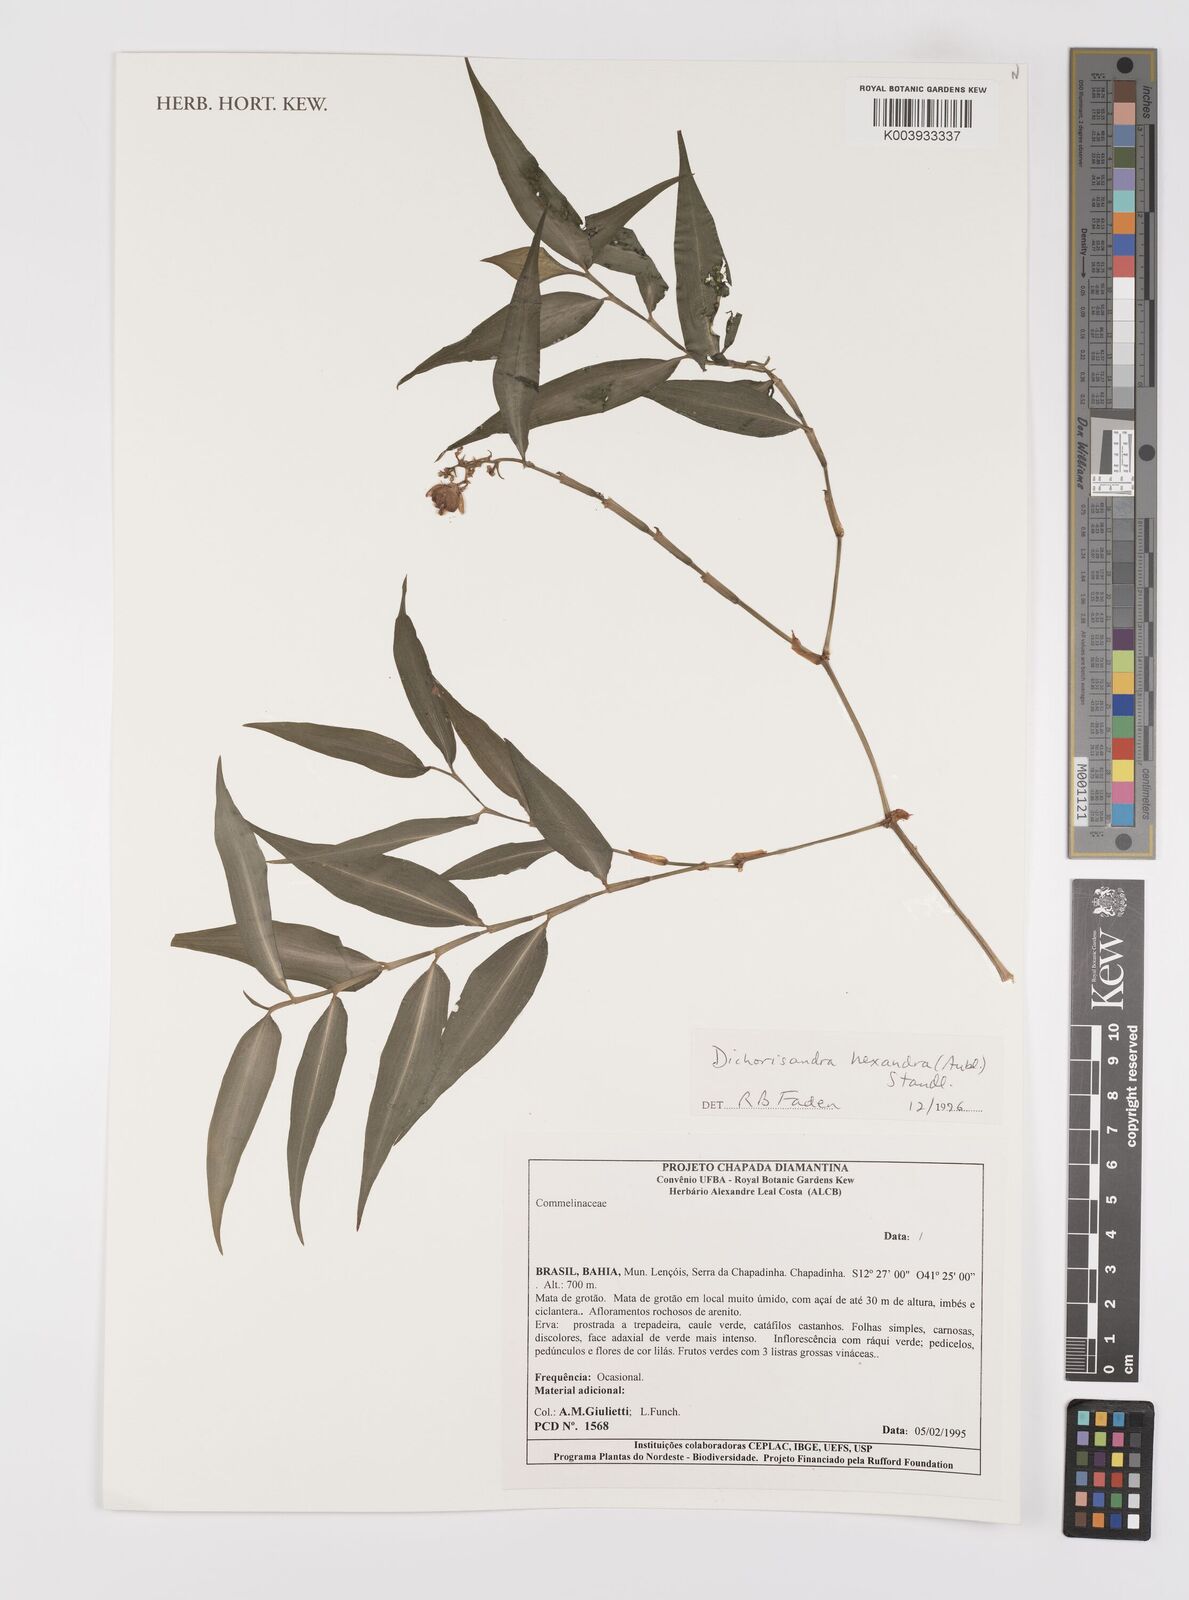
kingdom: Plantae
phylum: Tracheophyta
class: Liliopsida
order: Commelinales
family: Commelinaceae
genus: Dichorisandra
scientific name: Dichorisandra
